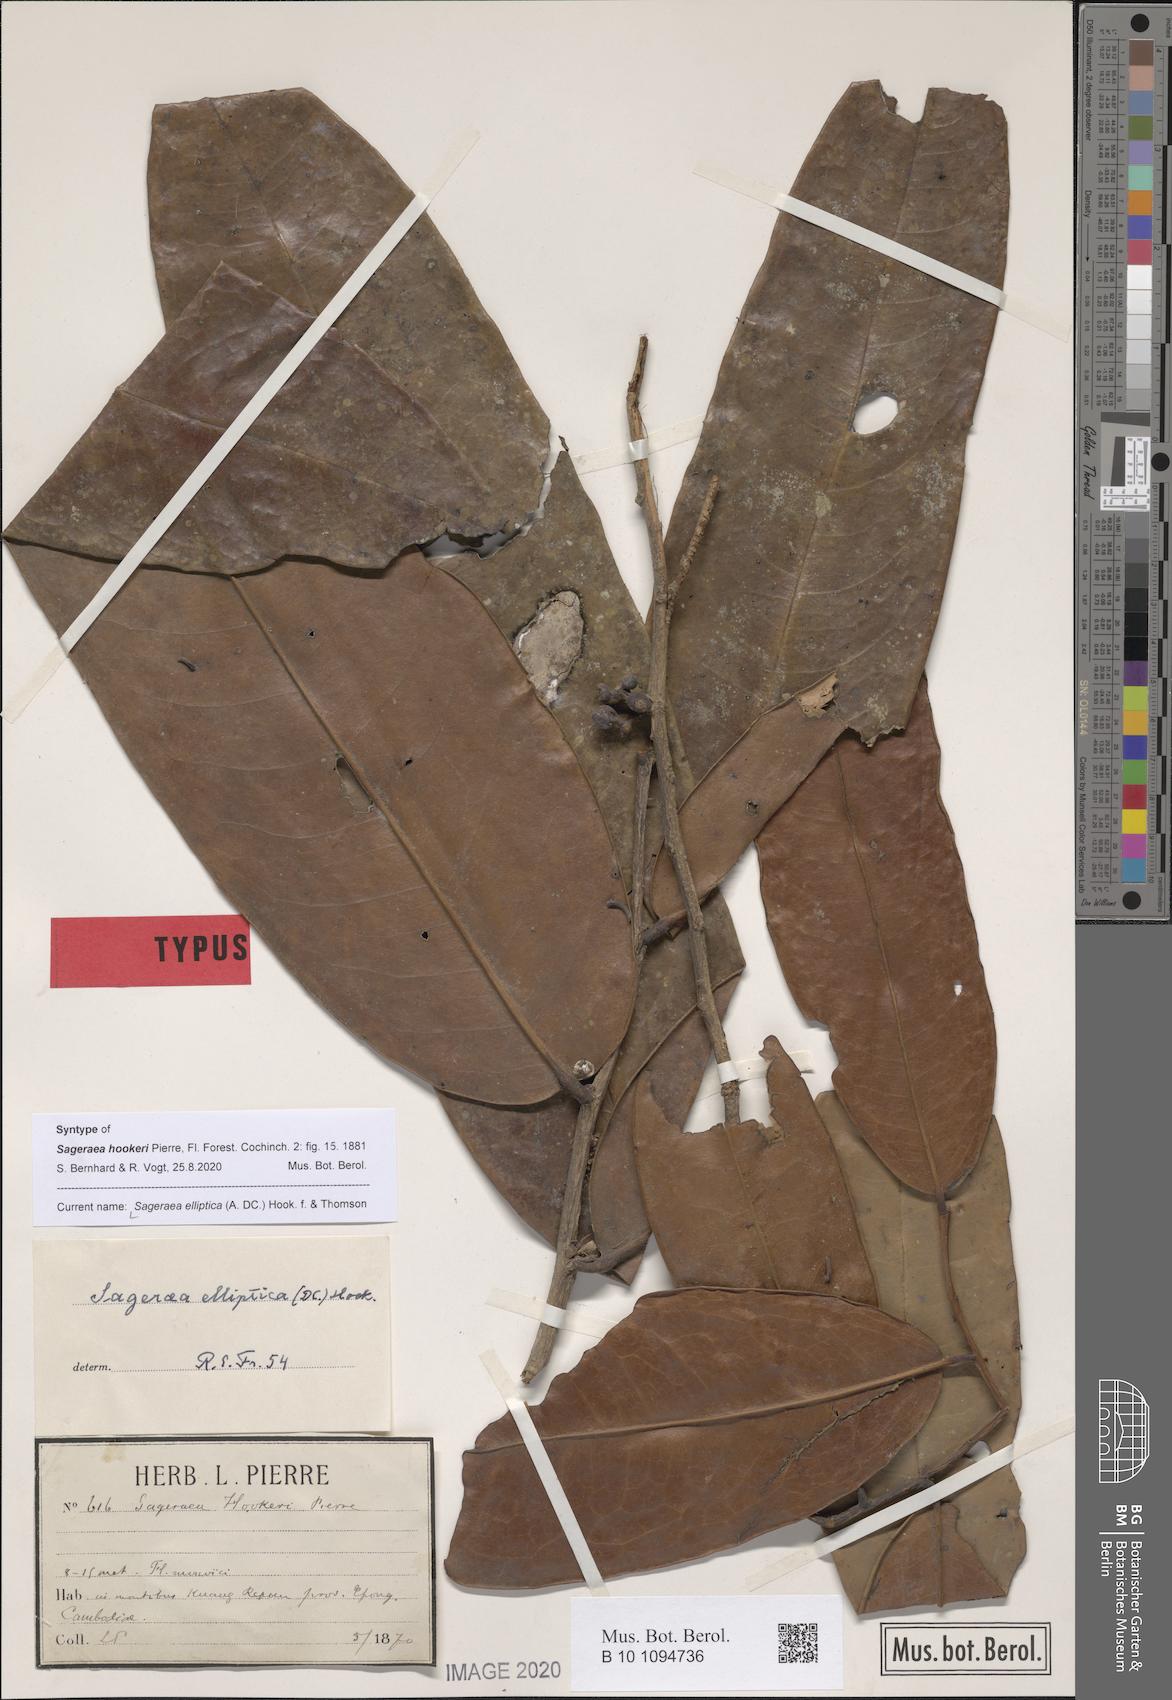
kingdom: Plantae
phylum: Tracheophyta
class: Magnoliopsida
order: Magnoliales
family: Annonaceae
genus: Sageraea
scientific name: Sageraea elliptica
